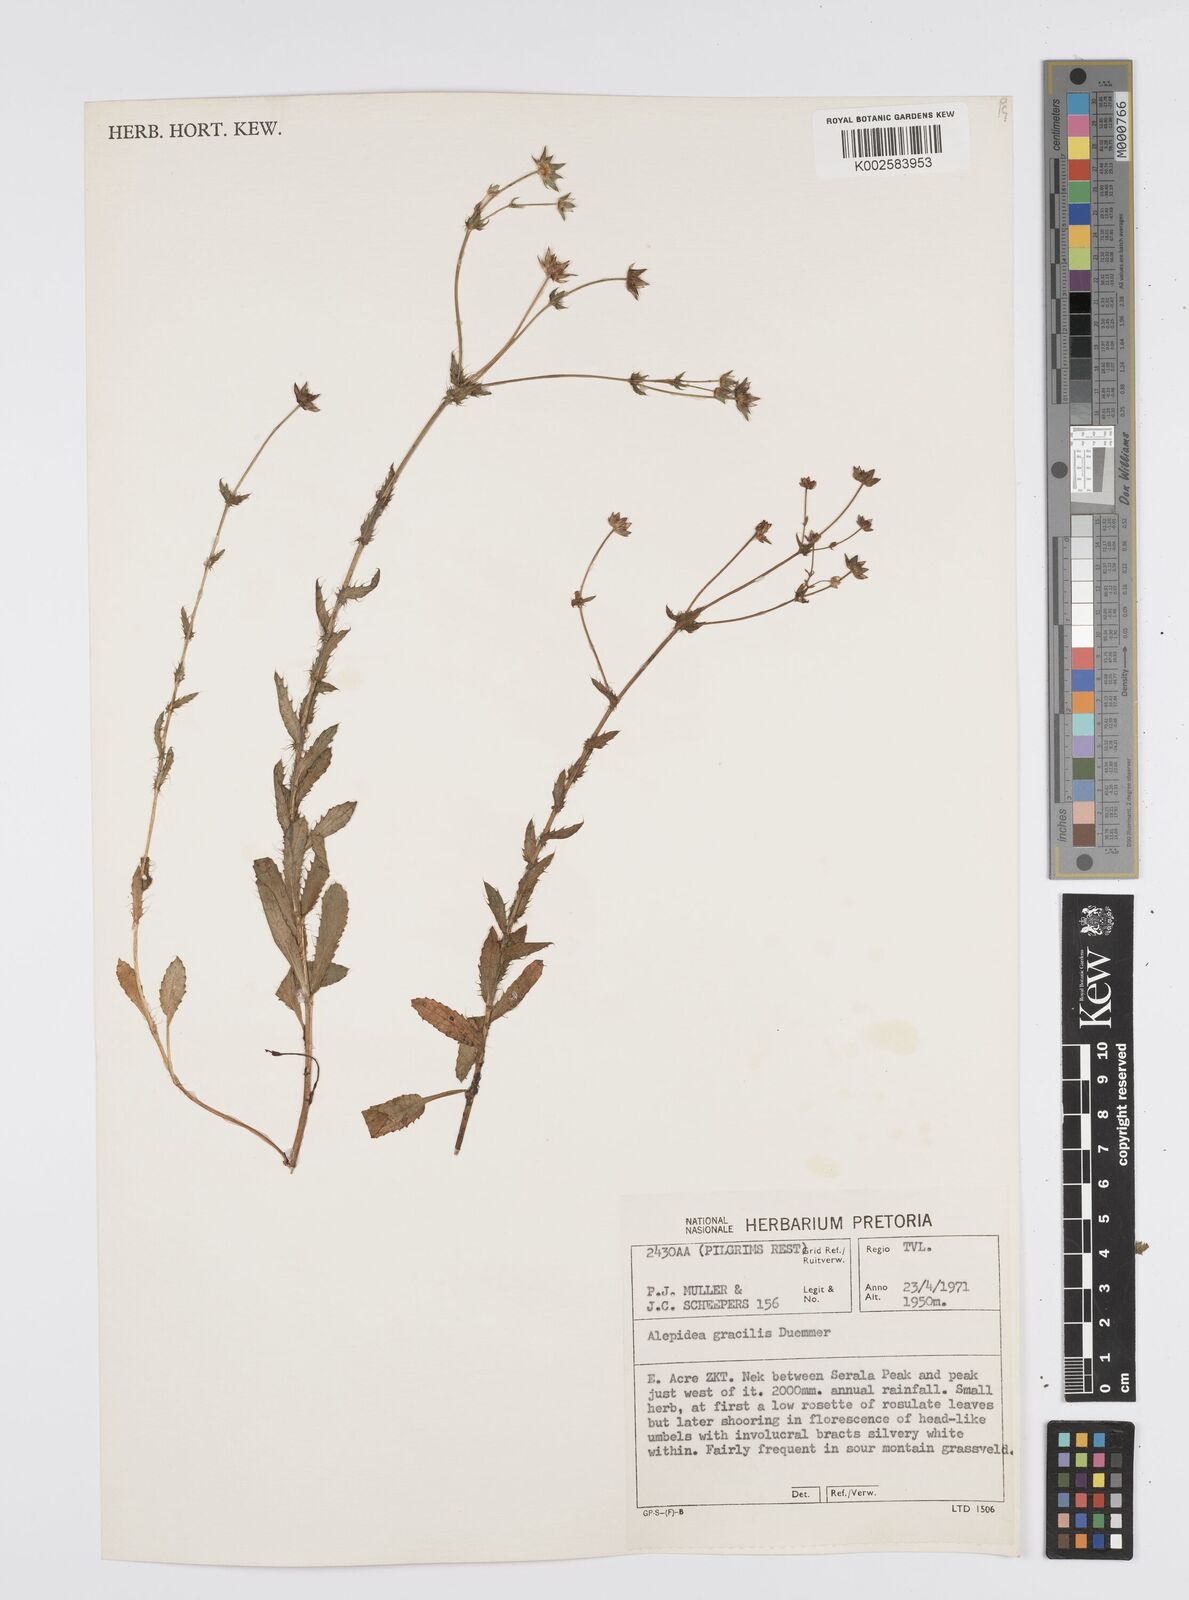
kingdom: Plantae
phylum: Tracheophyta
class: Magnoliopsida
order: Apiales
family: Apiaceae
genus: Alepidea
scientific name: Alepidea peduncularis
